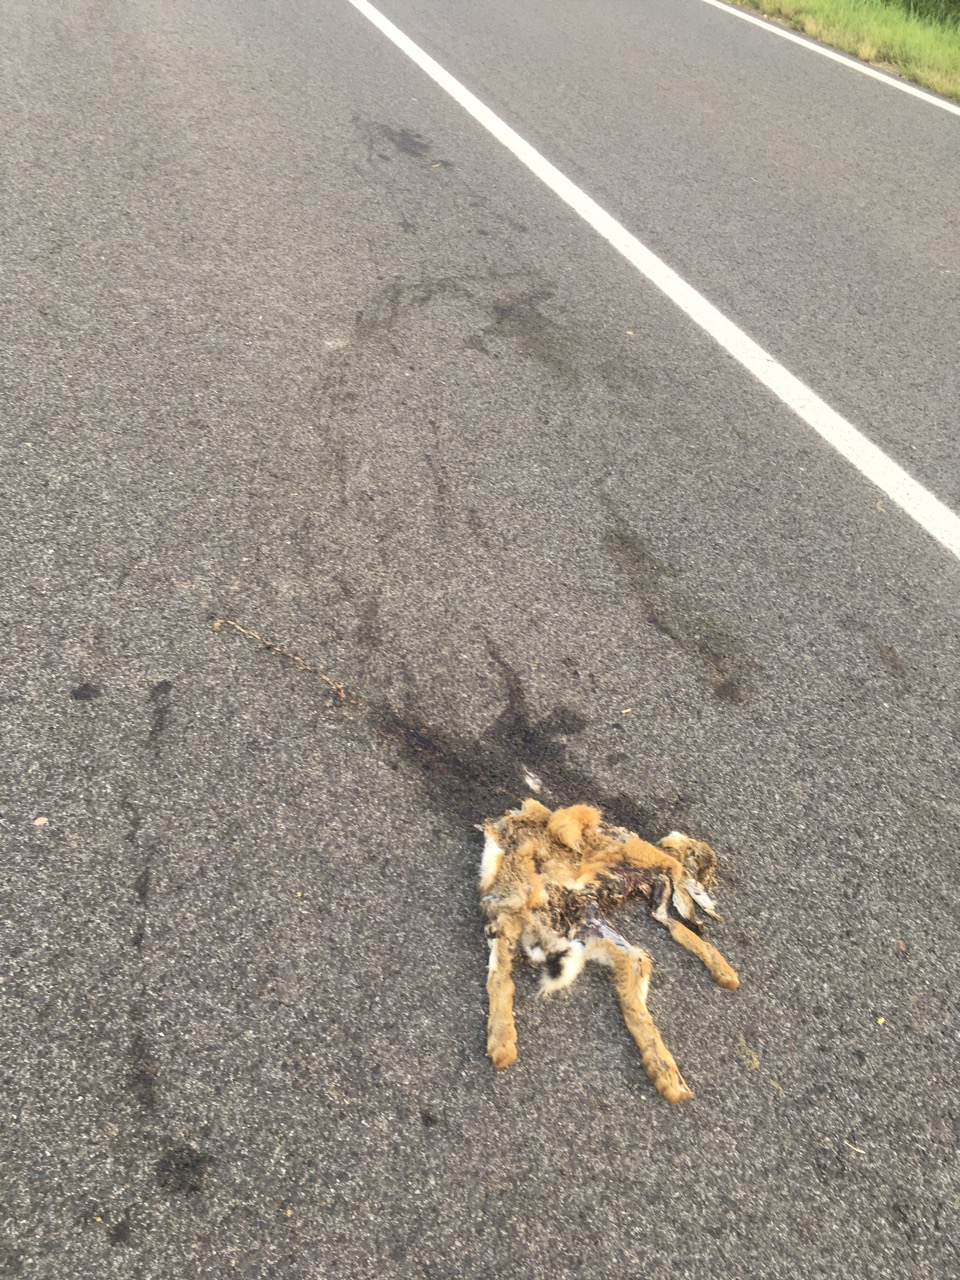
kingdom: Animalia
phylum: Chordata
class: Mammalia
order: Lagomorpha
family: Leporidae
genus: Lepus
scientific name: Lepus europaeus
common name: European hare
